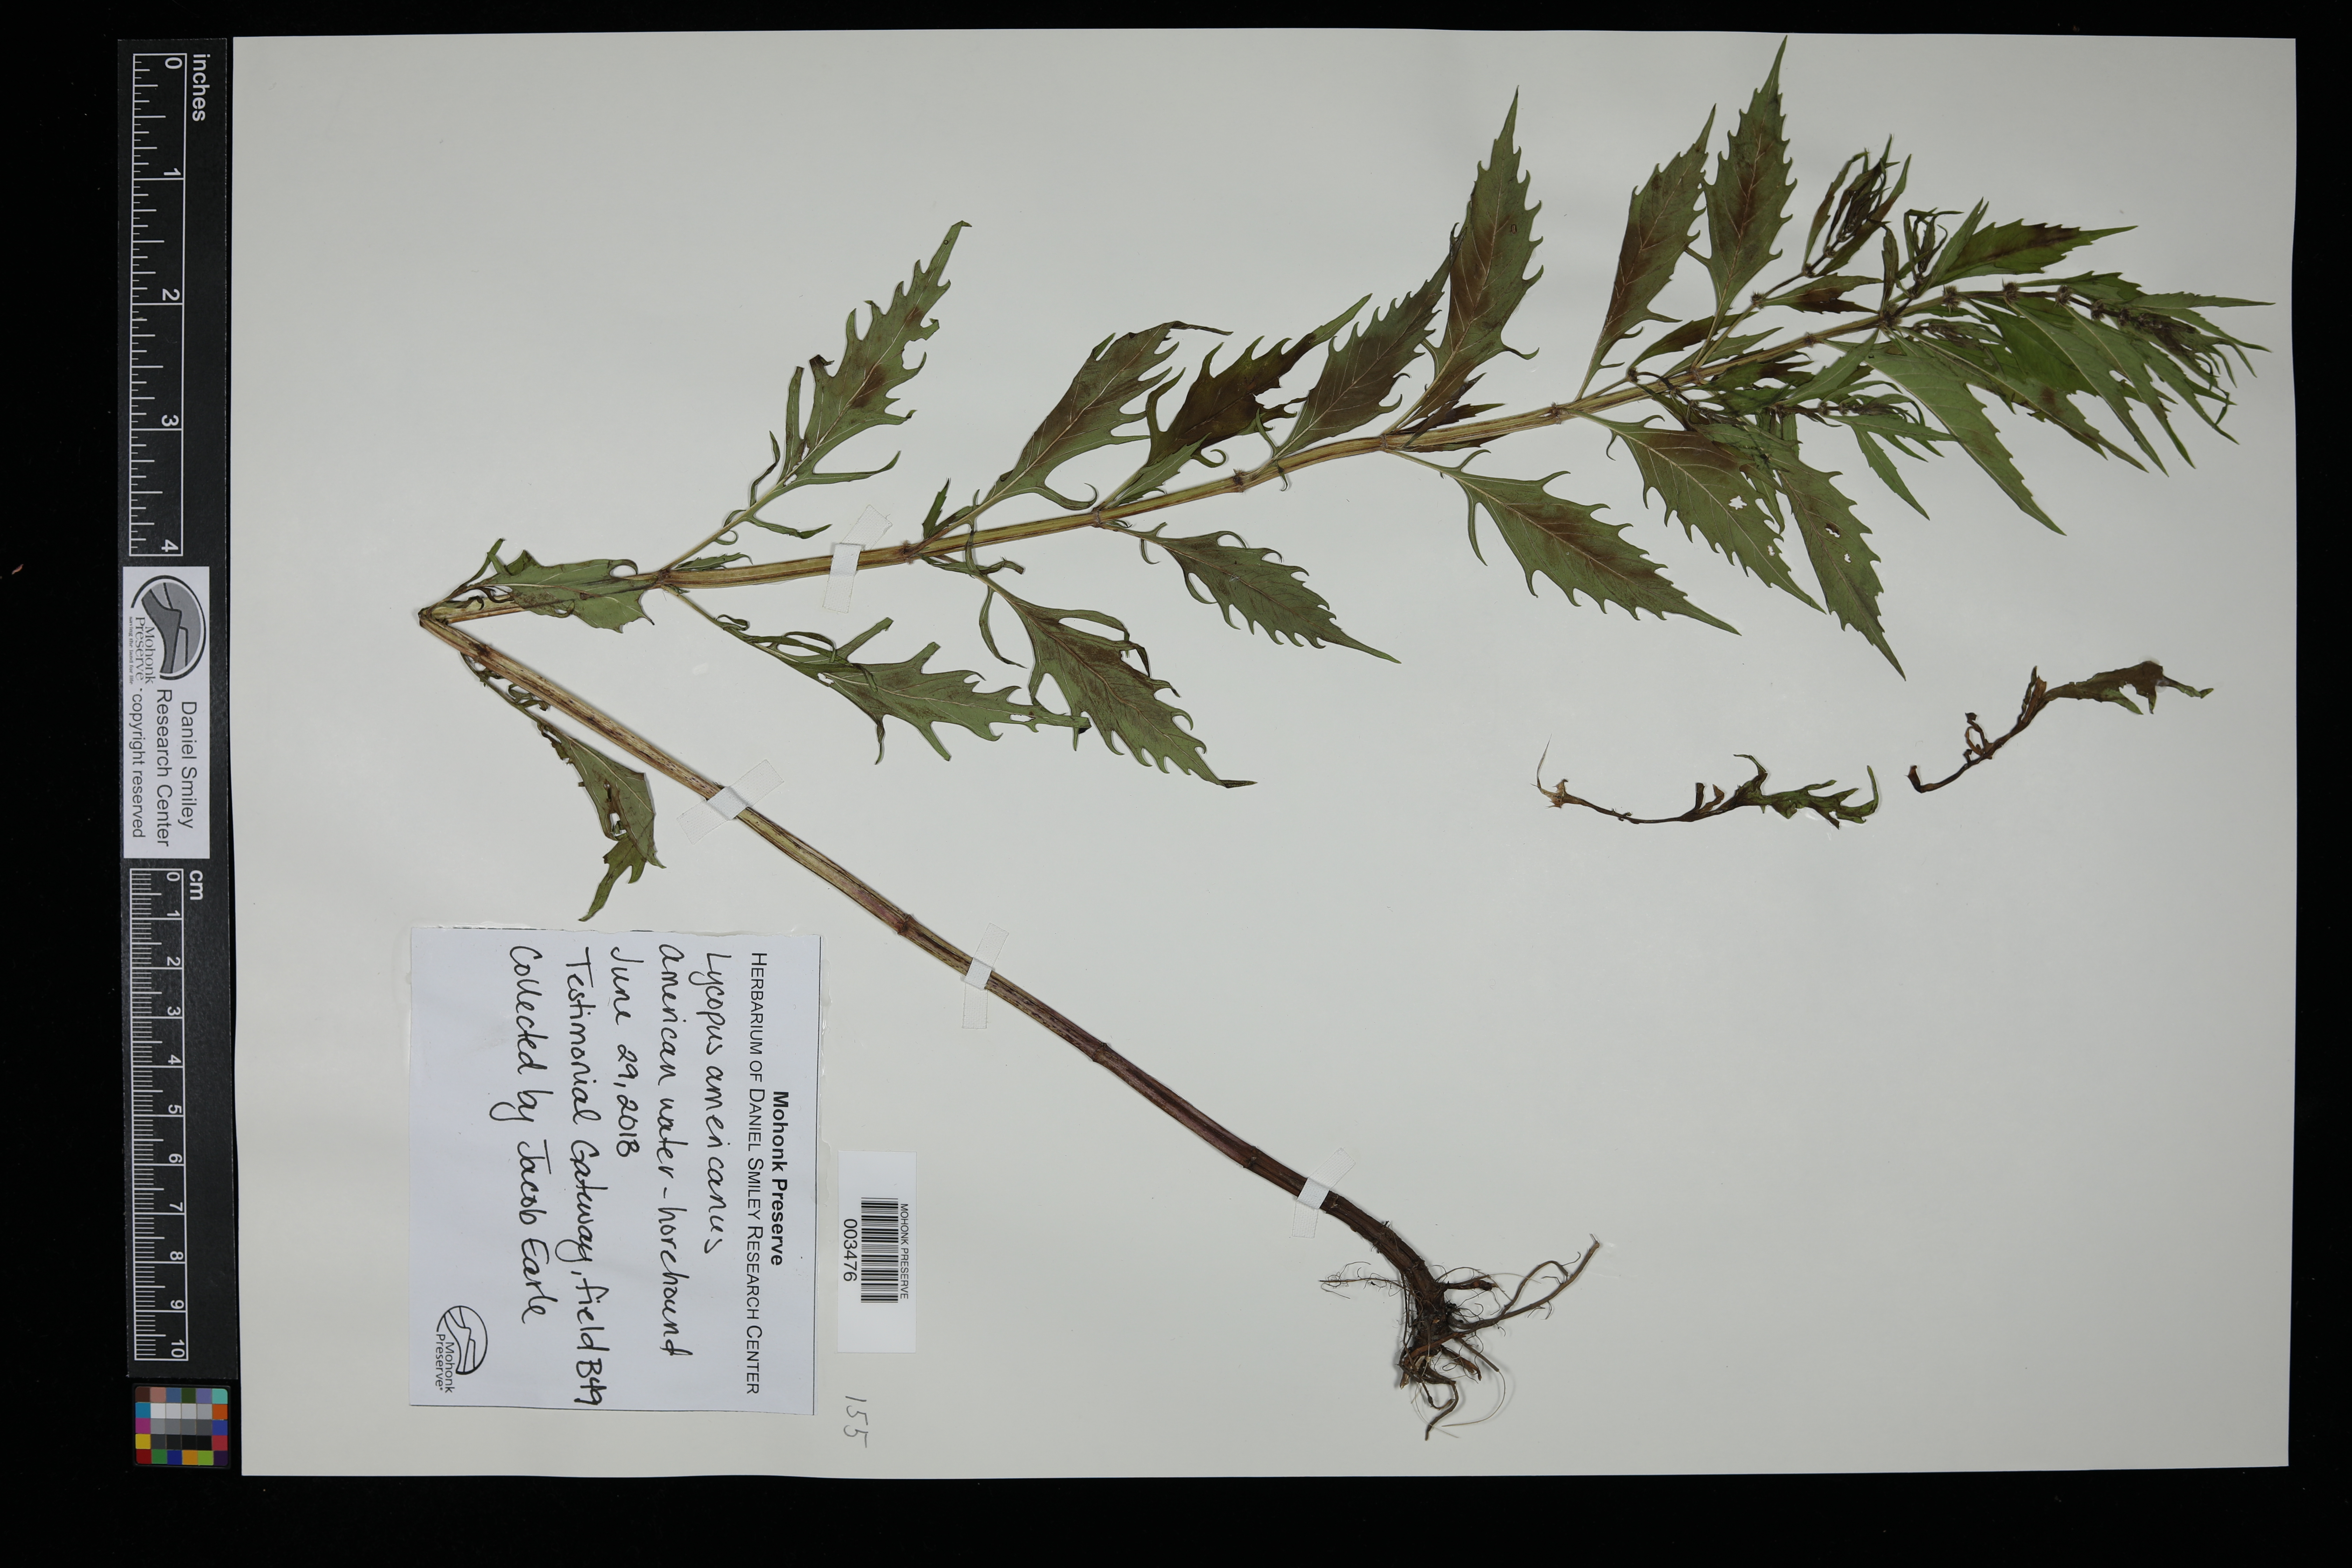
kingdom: Plantae
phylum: Tracheophyta
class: Magnoliopsida
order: Lamiales
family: Lamiaceae
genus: Lycopus
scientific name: Lycopus americanus
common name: American bugleweed
